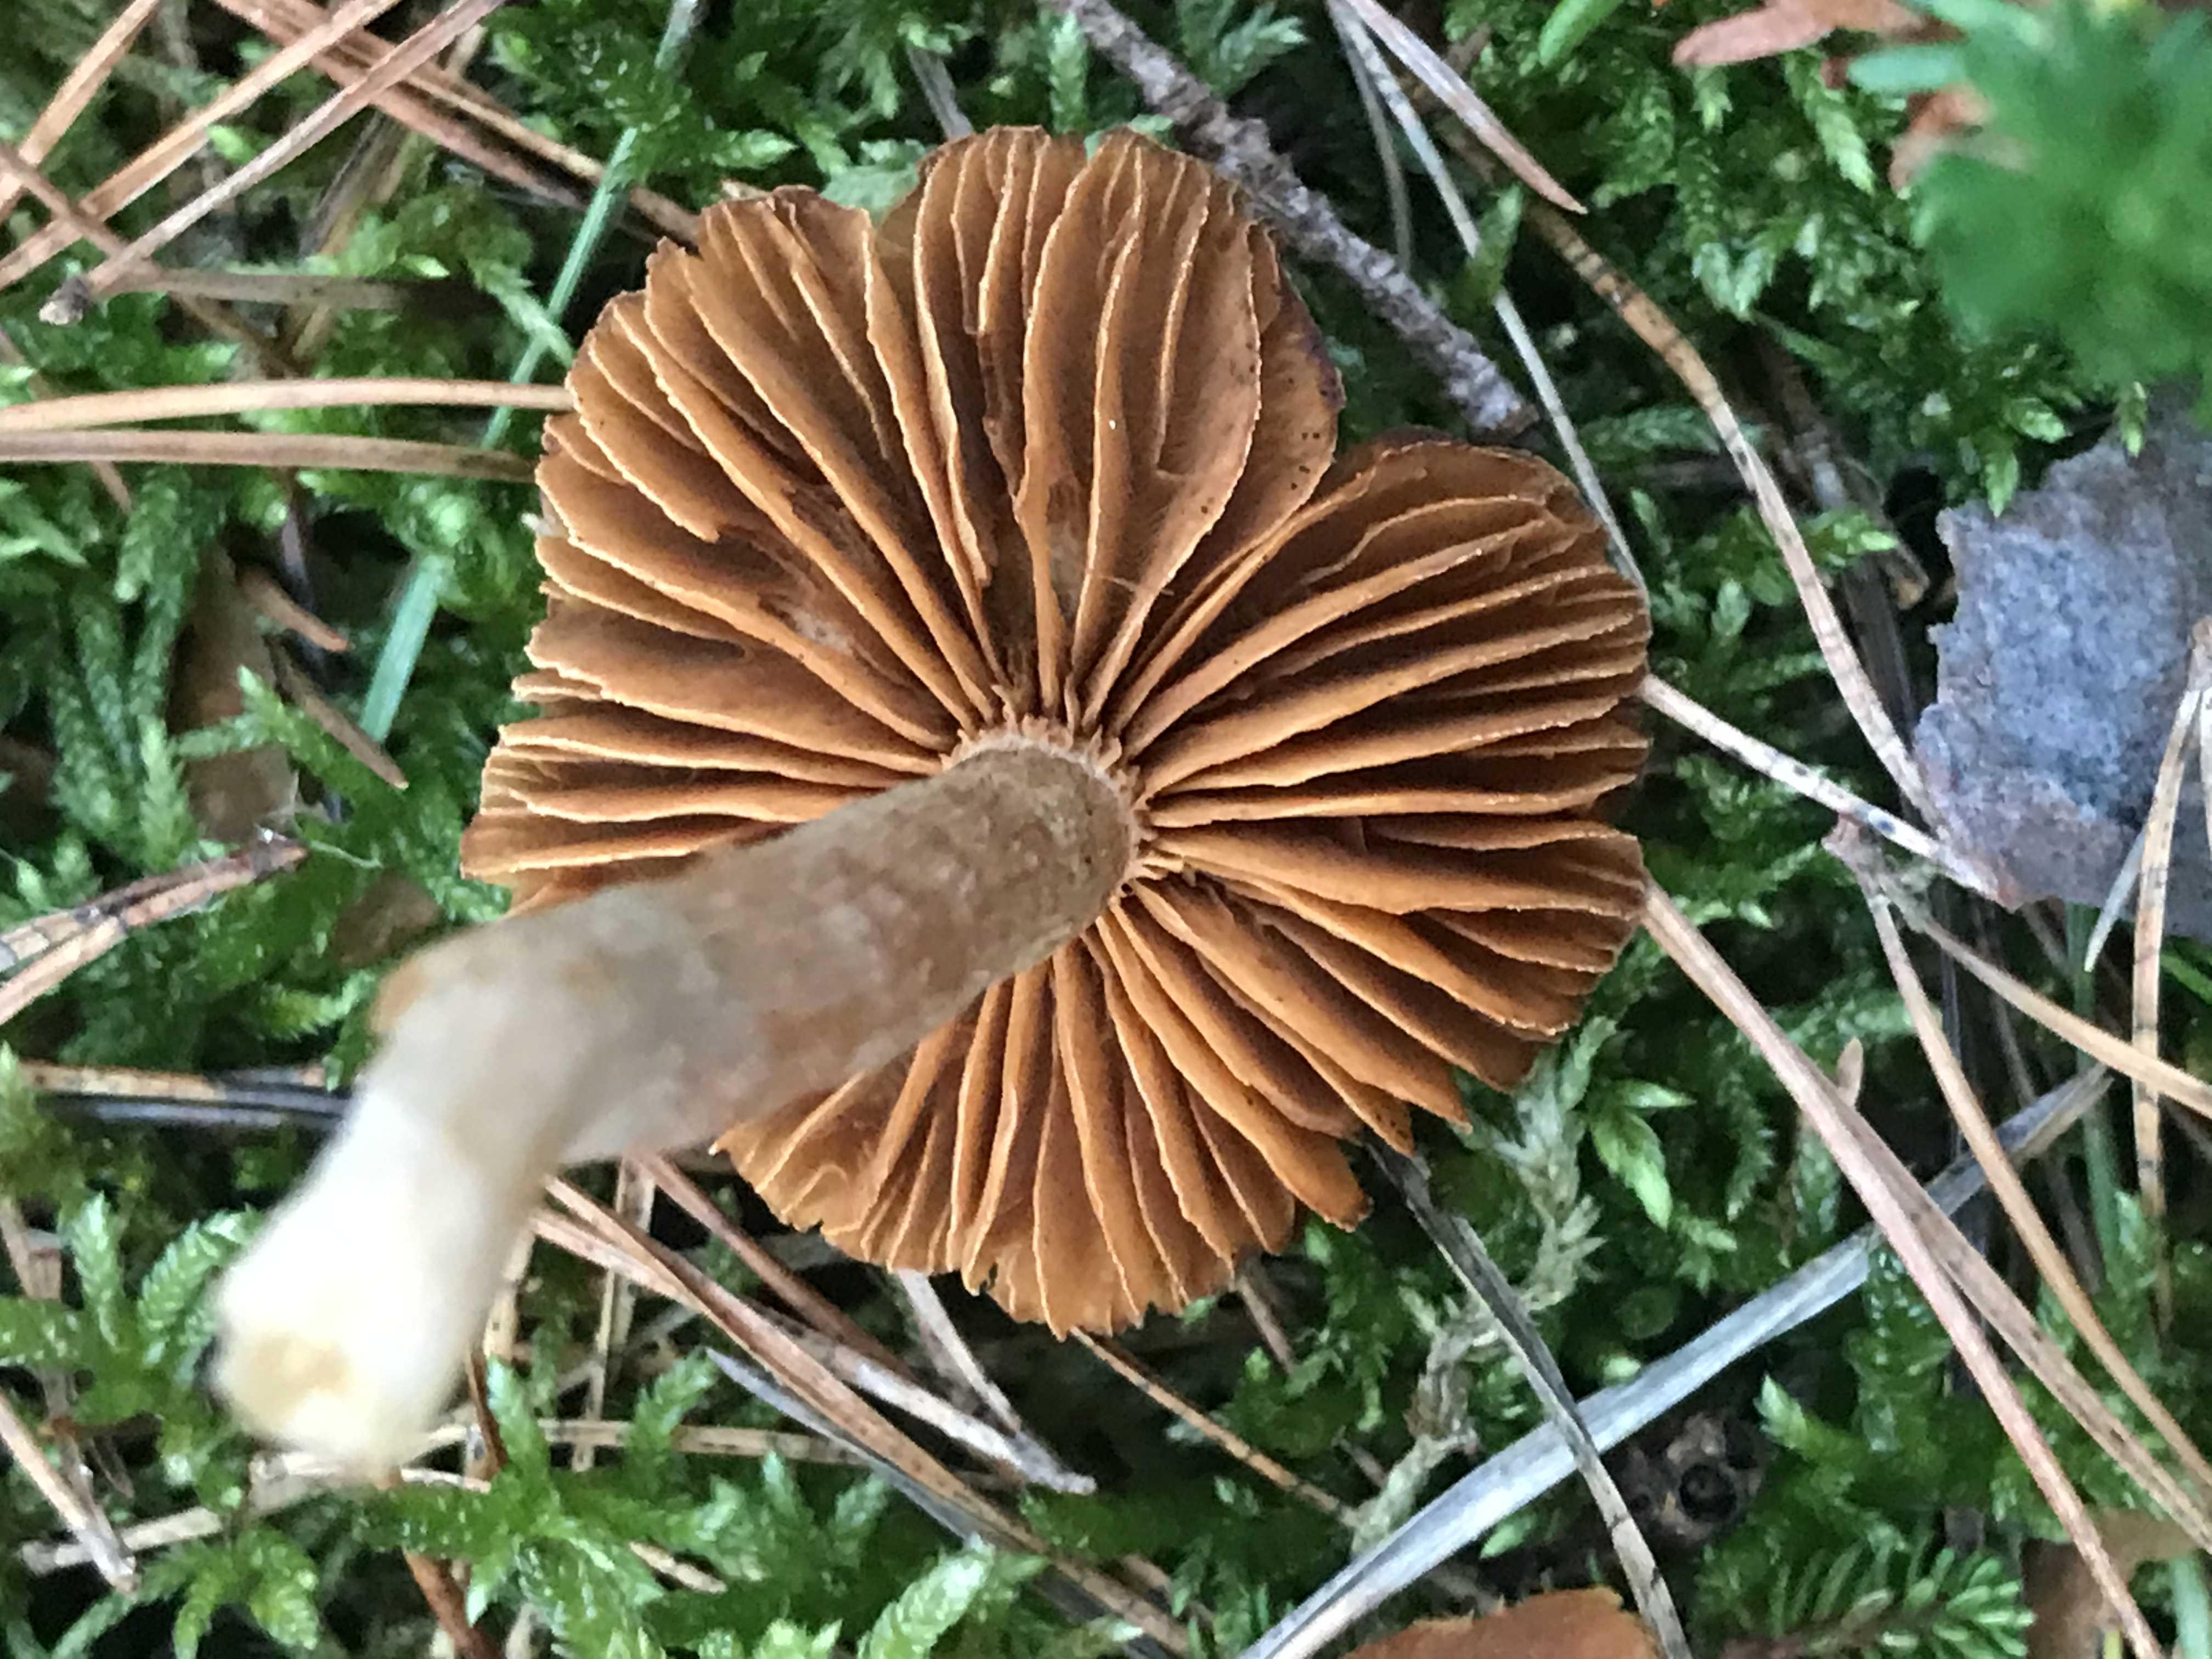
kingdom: Fungi
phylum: Basidiomycota
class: Agaricomycetes
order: Agaricales
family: Cortinariaceae
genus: Cortinarius
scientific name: Cortinarius
